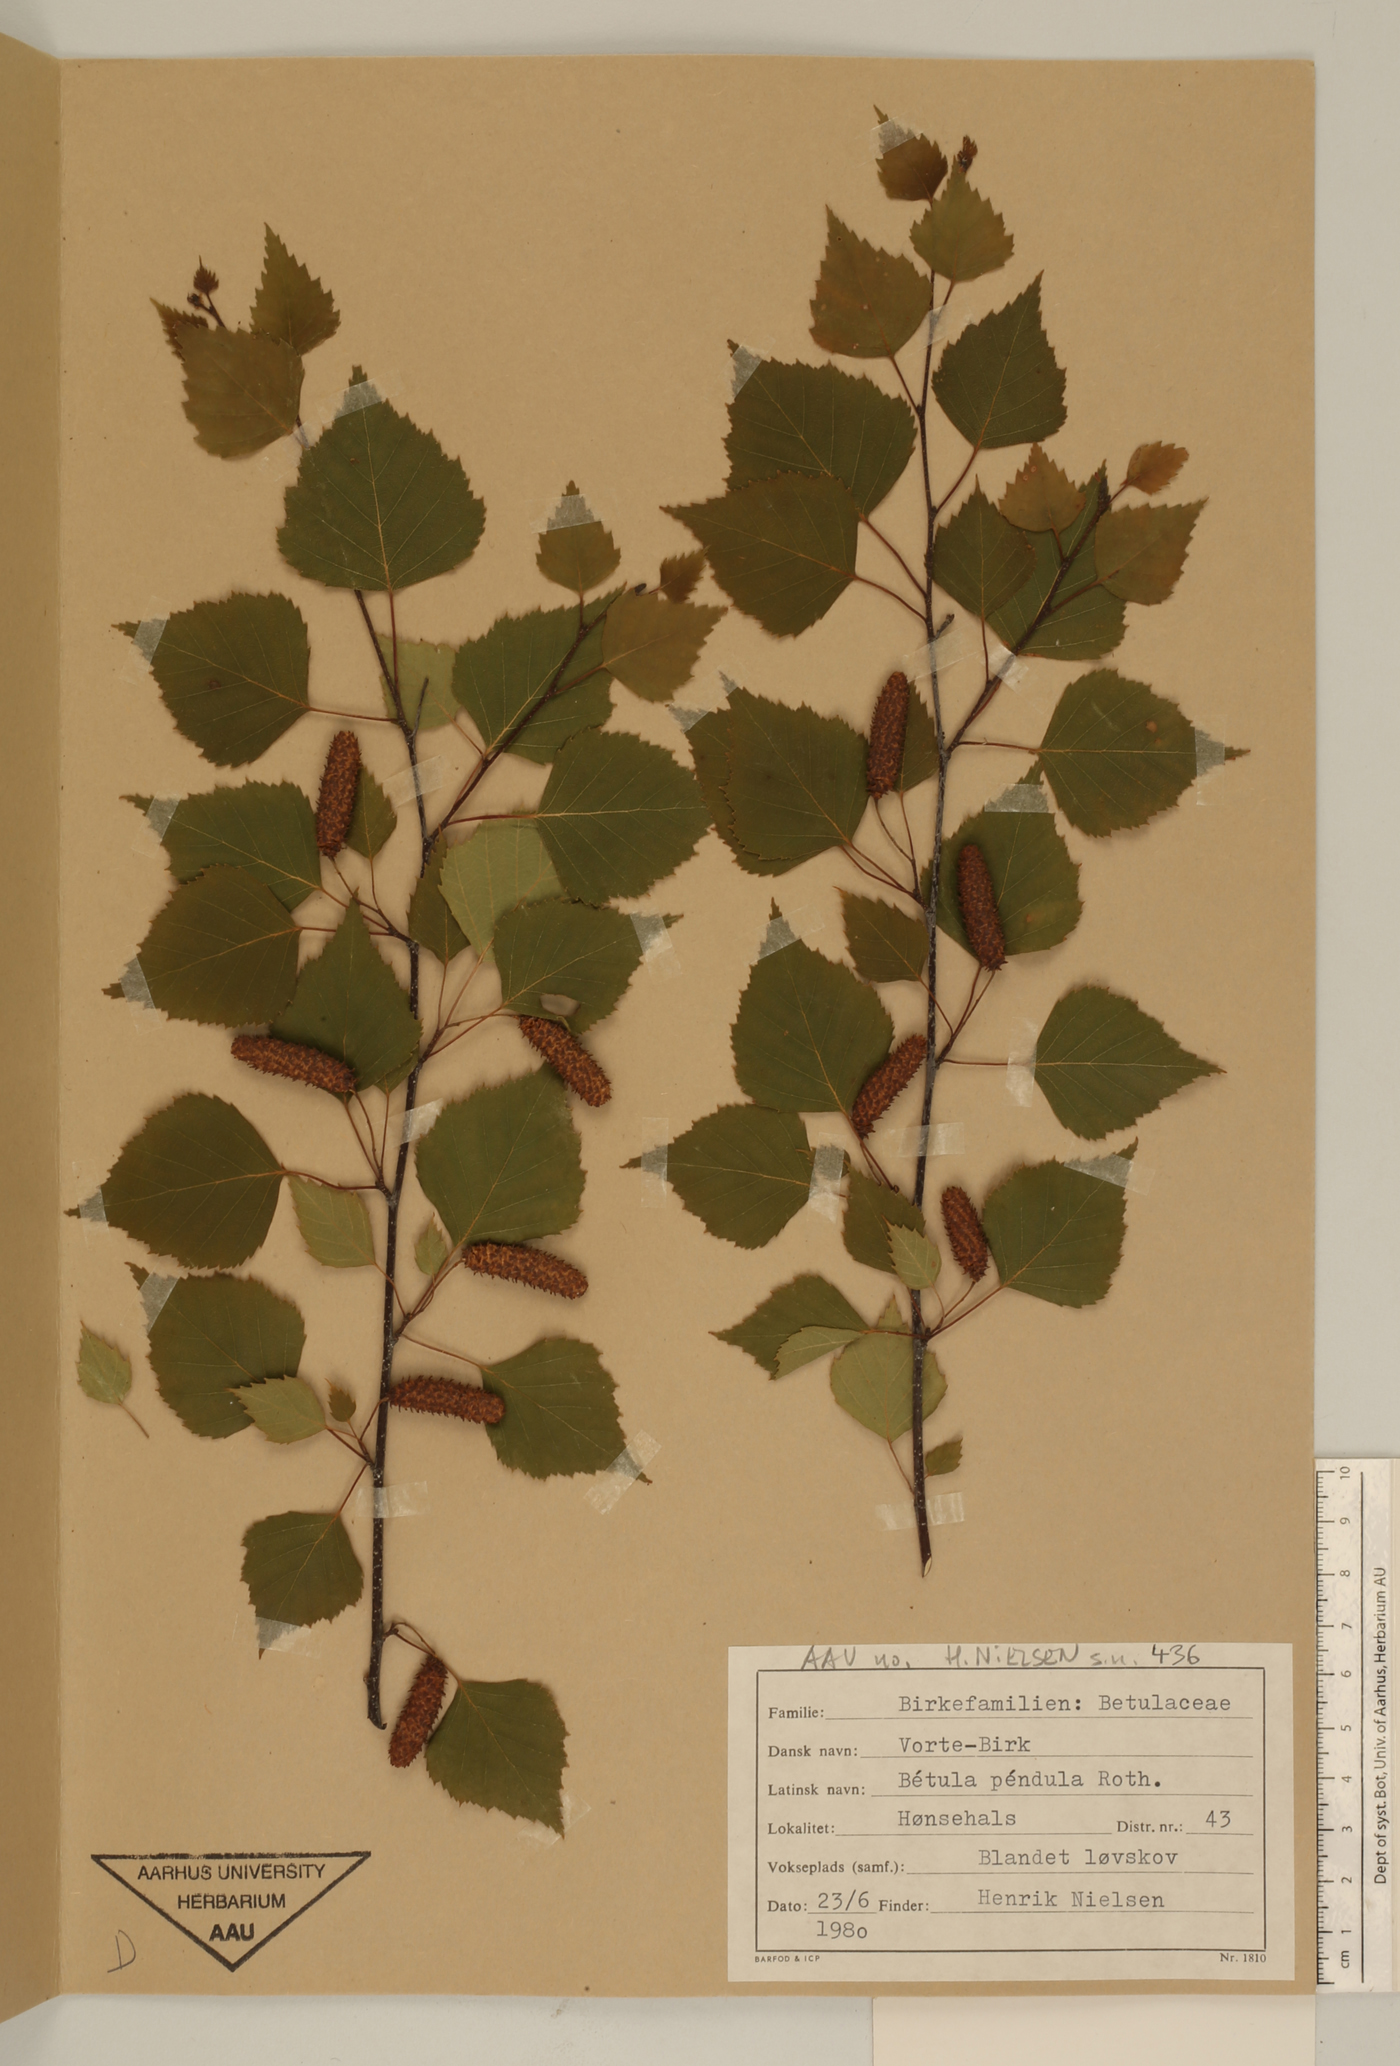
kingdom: Plantae
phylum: Tracheophyta
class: Magnoliopsida
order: Fagales
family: Betulaceae
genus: Betula
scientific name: Betula pendula
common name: Silver birch
